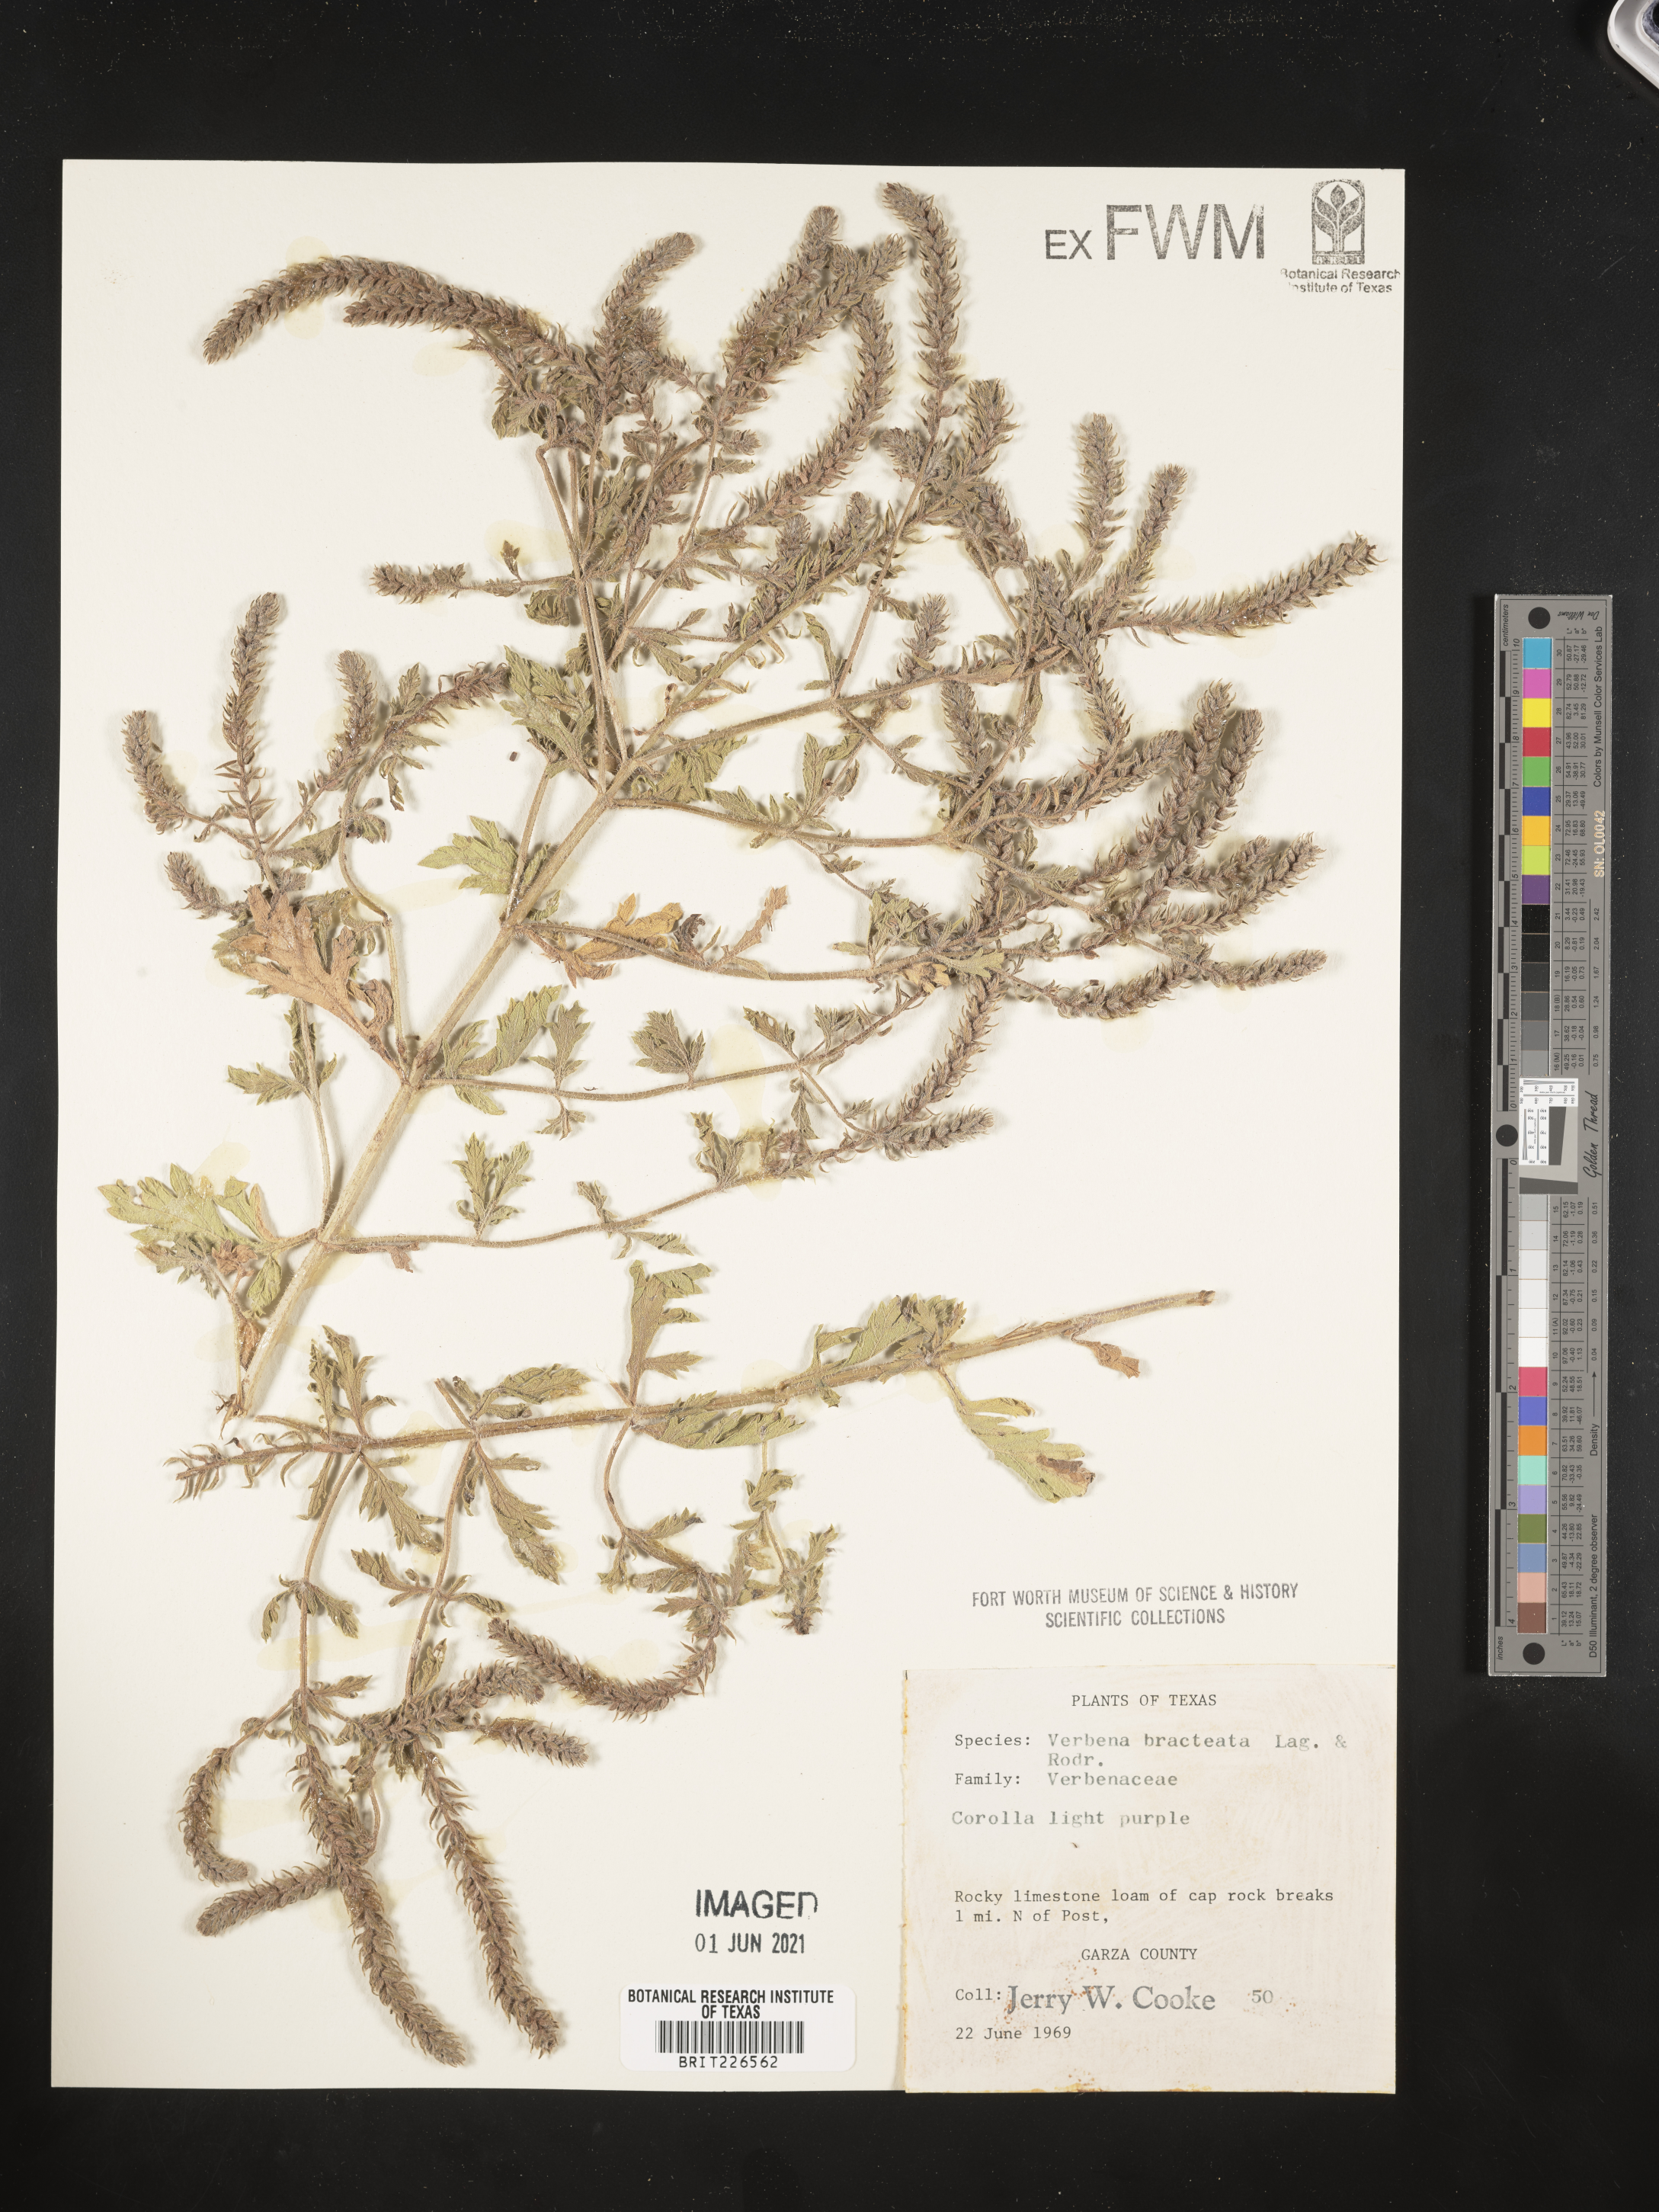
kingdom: Plantae
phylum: Tracheophyta
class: Magnoliopsida
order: Lamiales
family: Verbenaceae
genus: Verbena
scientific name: Verbena bracteata
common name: Bracted vervain
